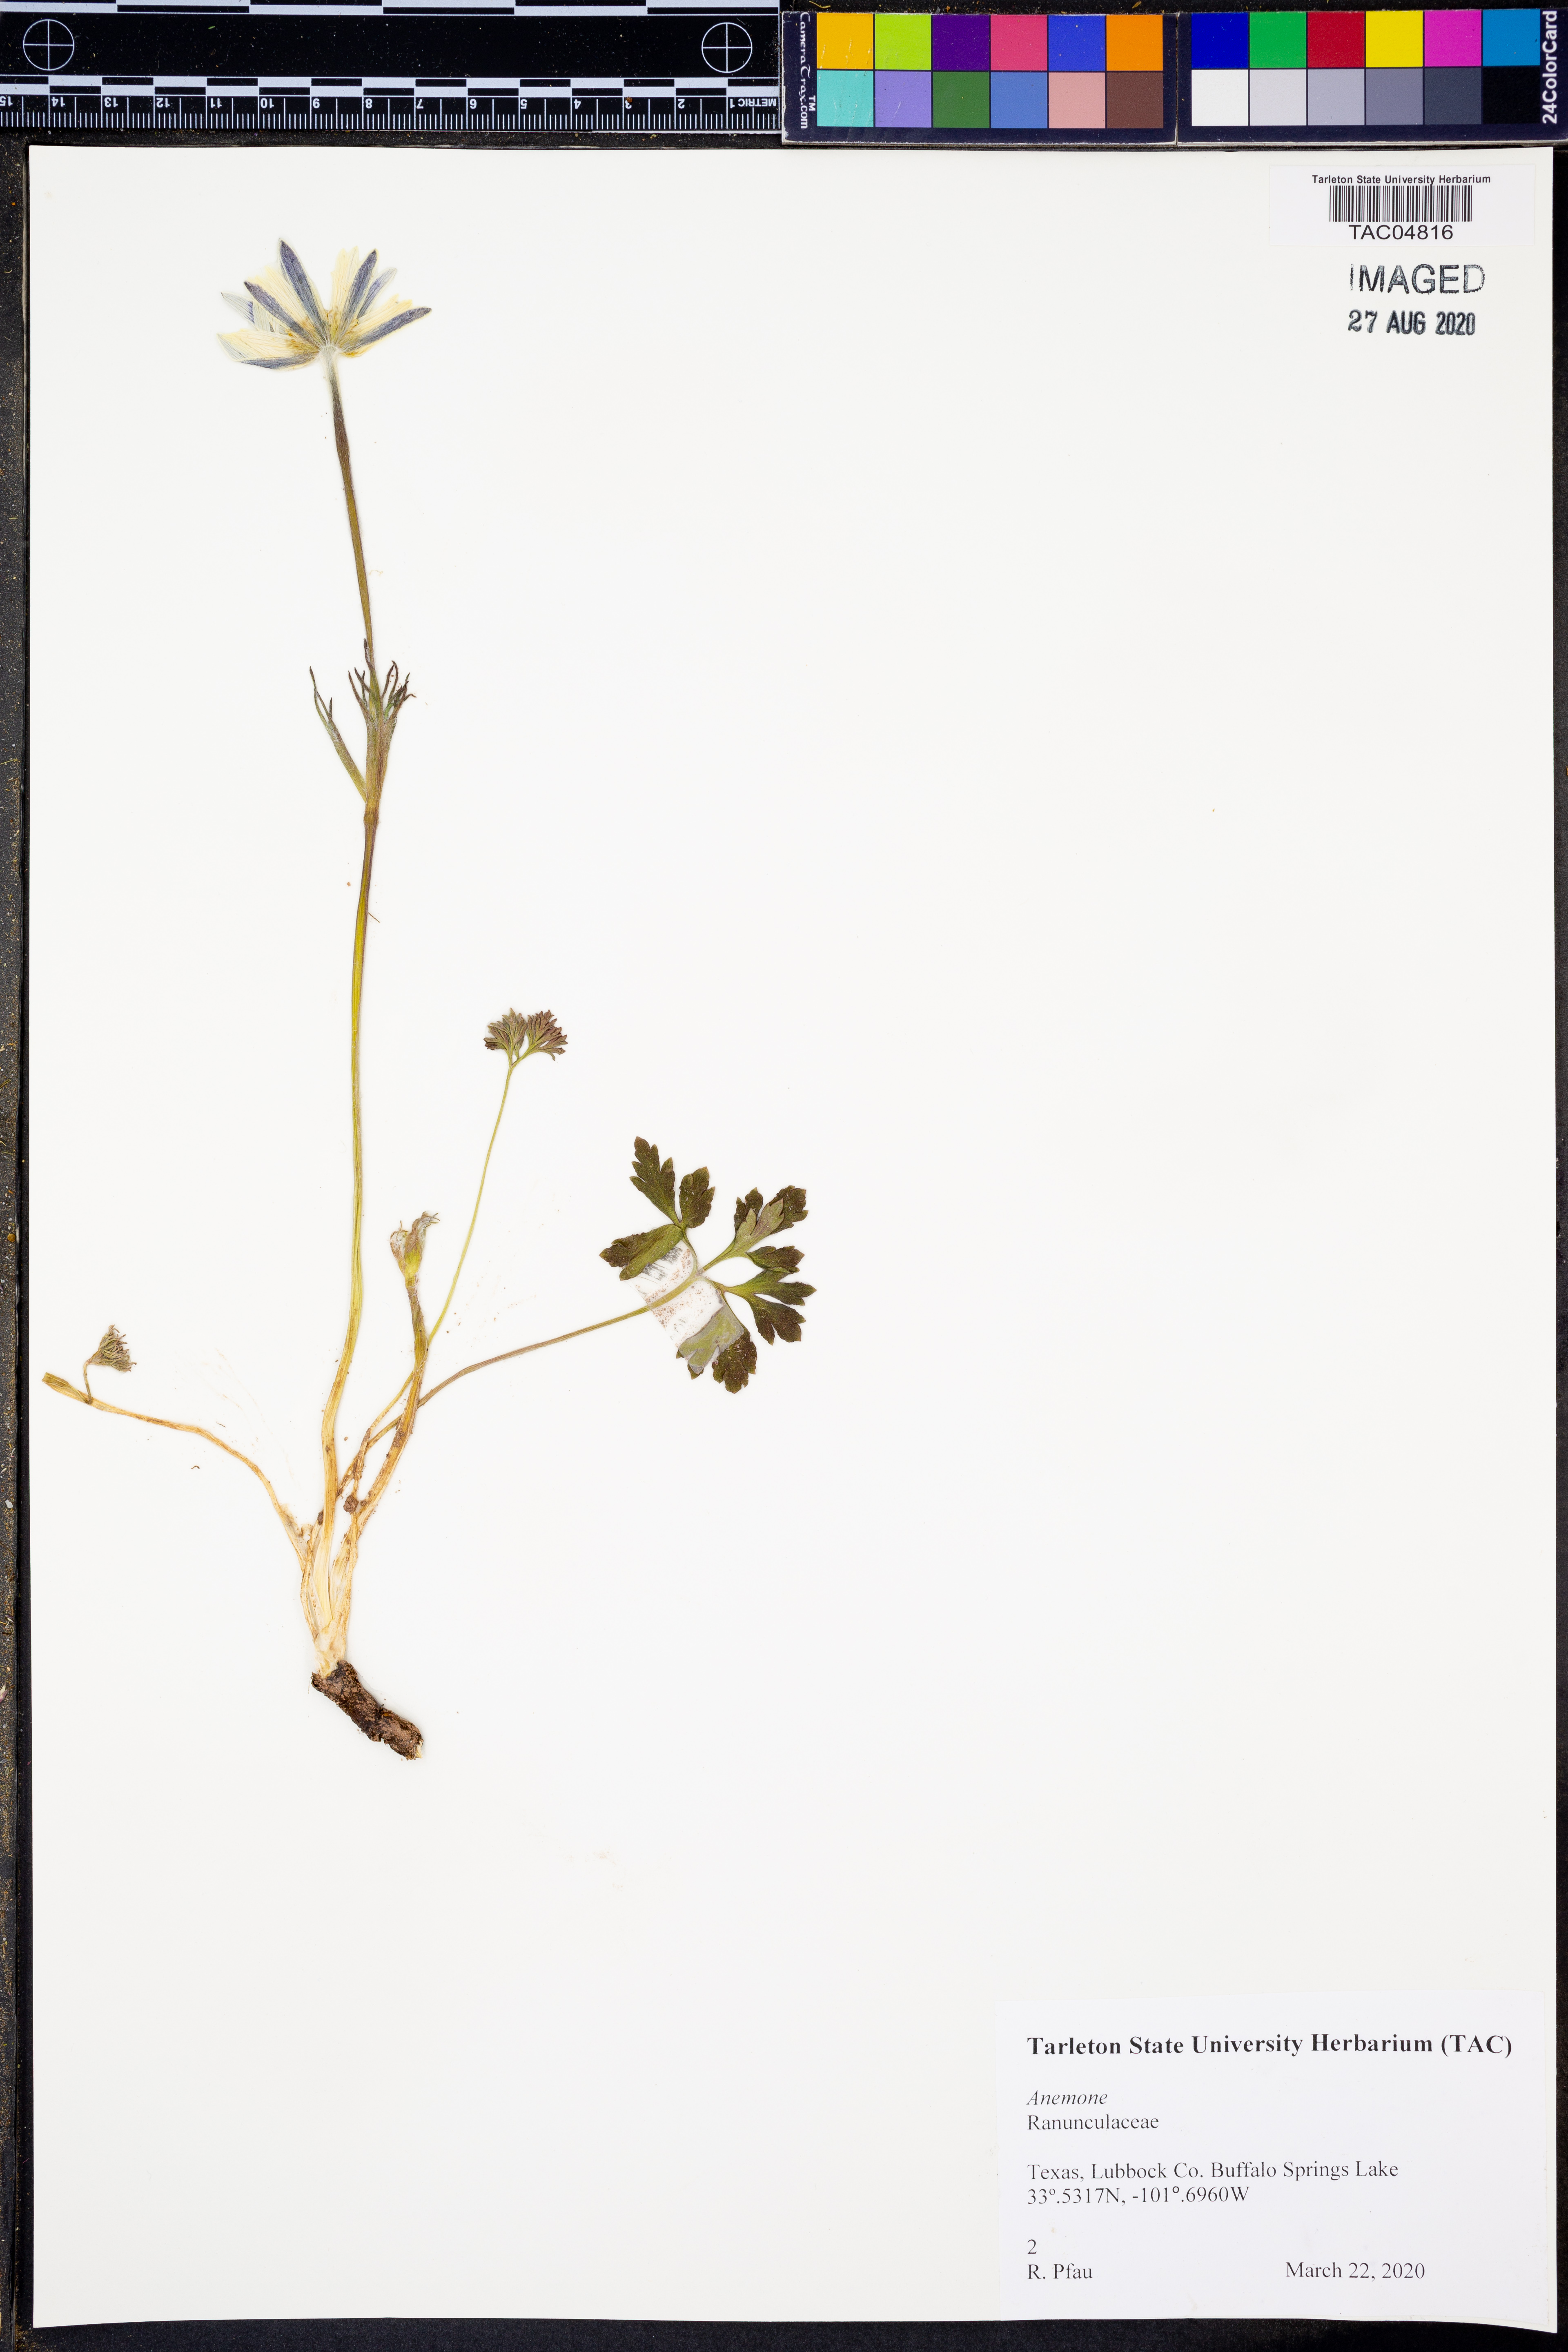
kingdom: Plantae
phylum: Tracheophyta
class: Magnoliopsida
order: Ranunculales
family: Ranunculaceae
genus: Anemone
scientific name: Anemone
